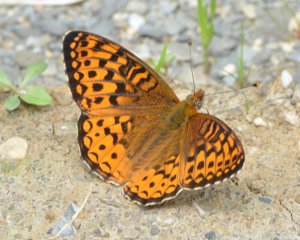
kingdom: Animalia
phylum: Arthropoda
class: Insecta
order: Lepidoptera
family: Nymphalidae
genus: Speyeria
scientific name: Speyeria atlantis
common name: Atlantis Fritillary
